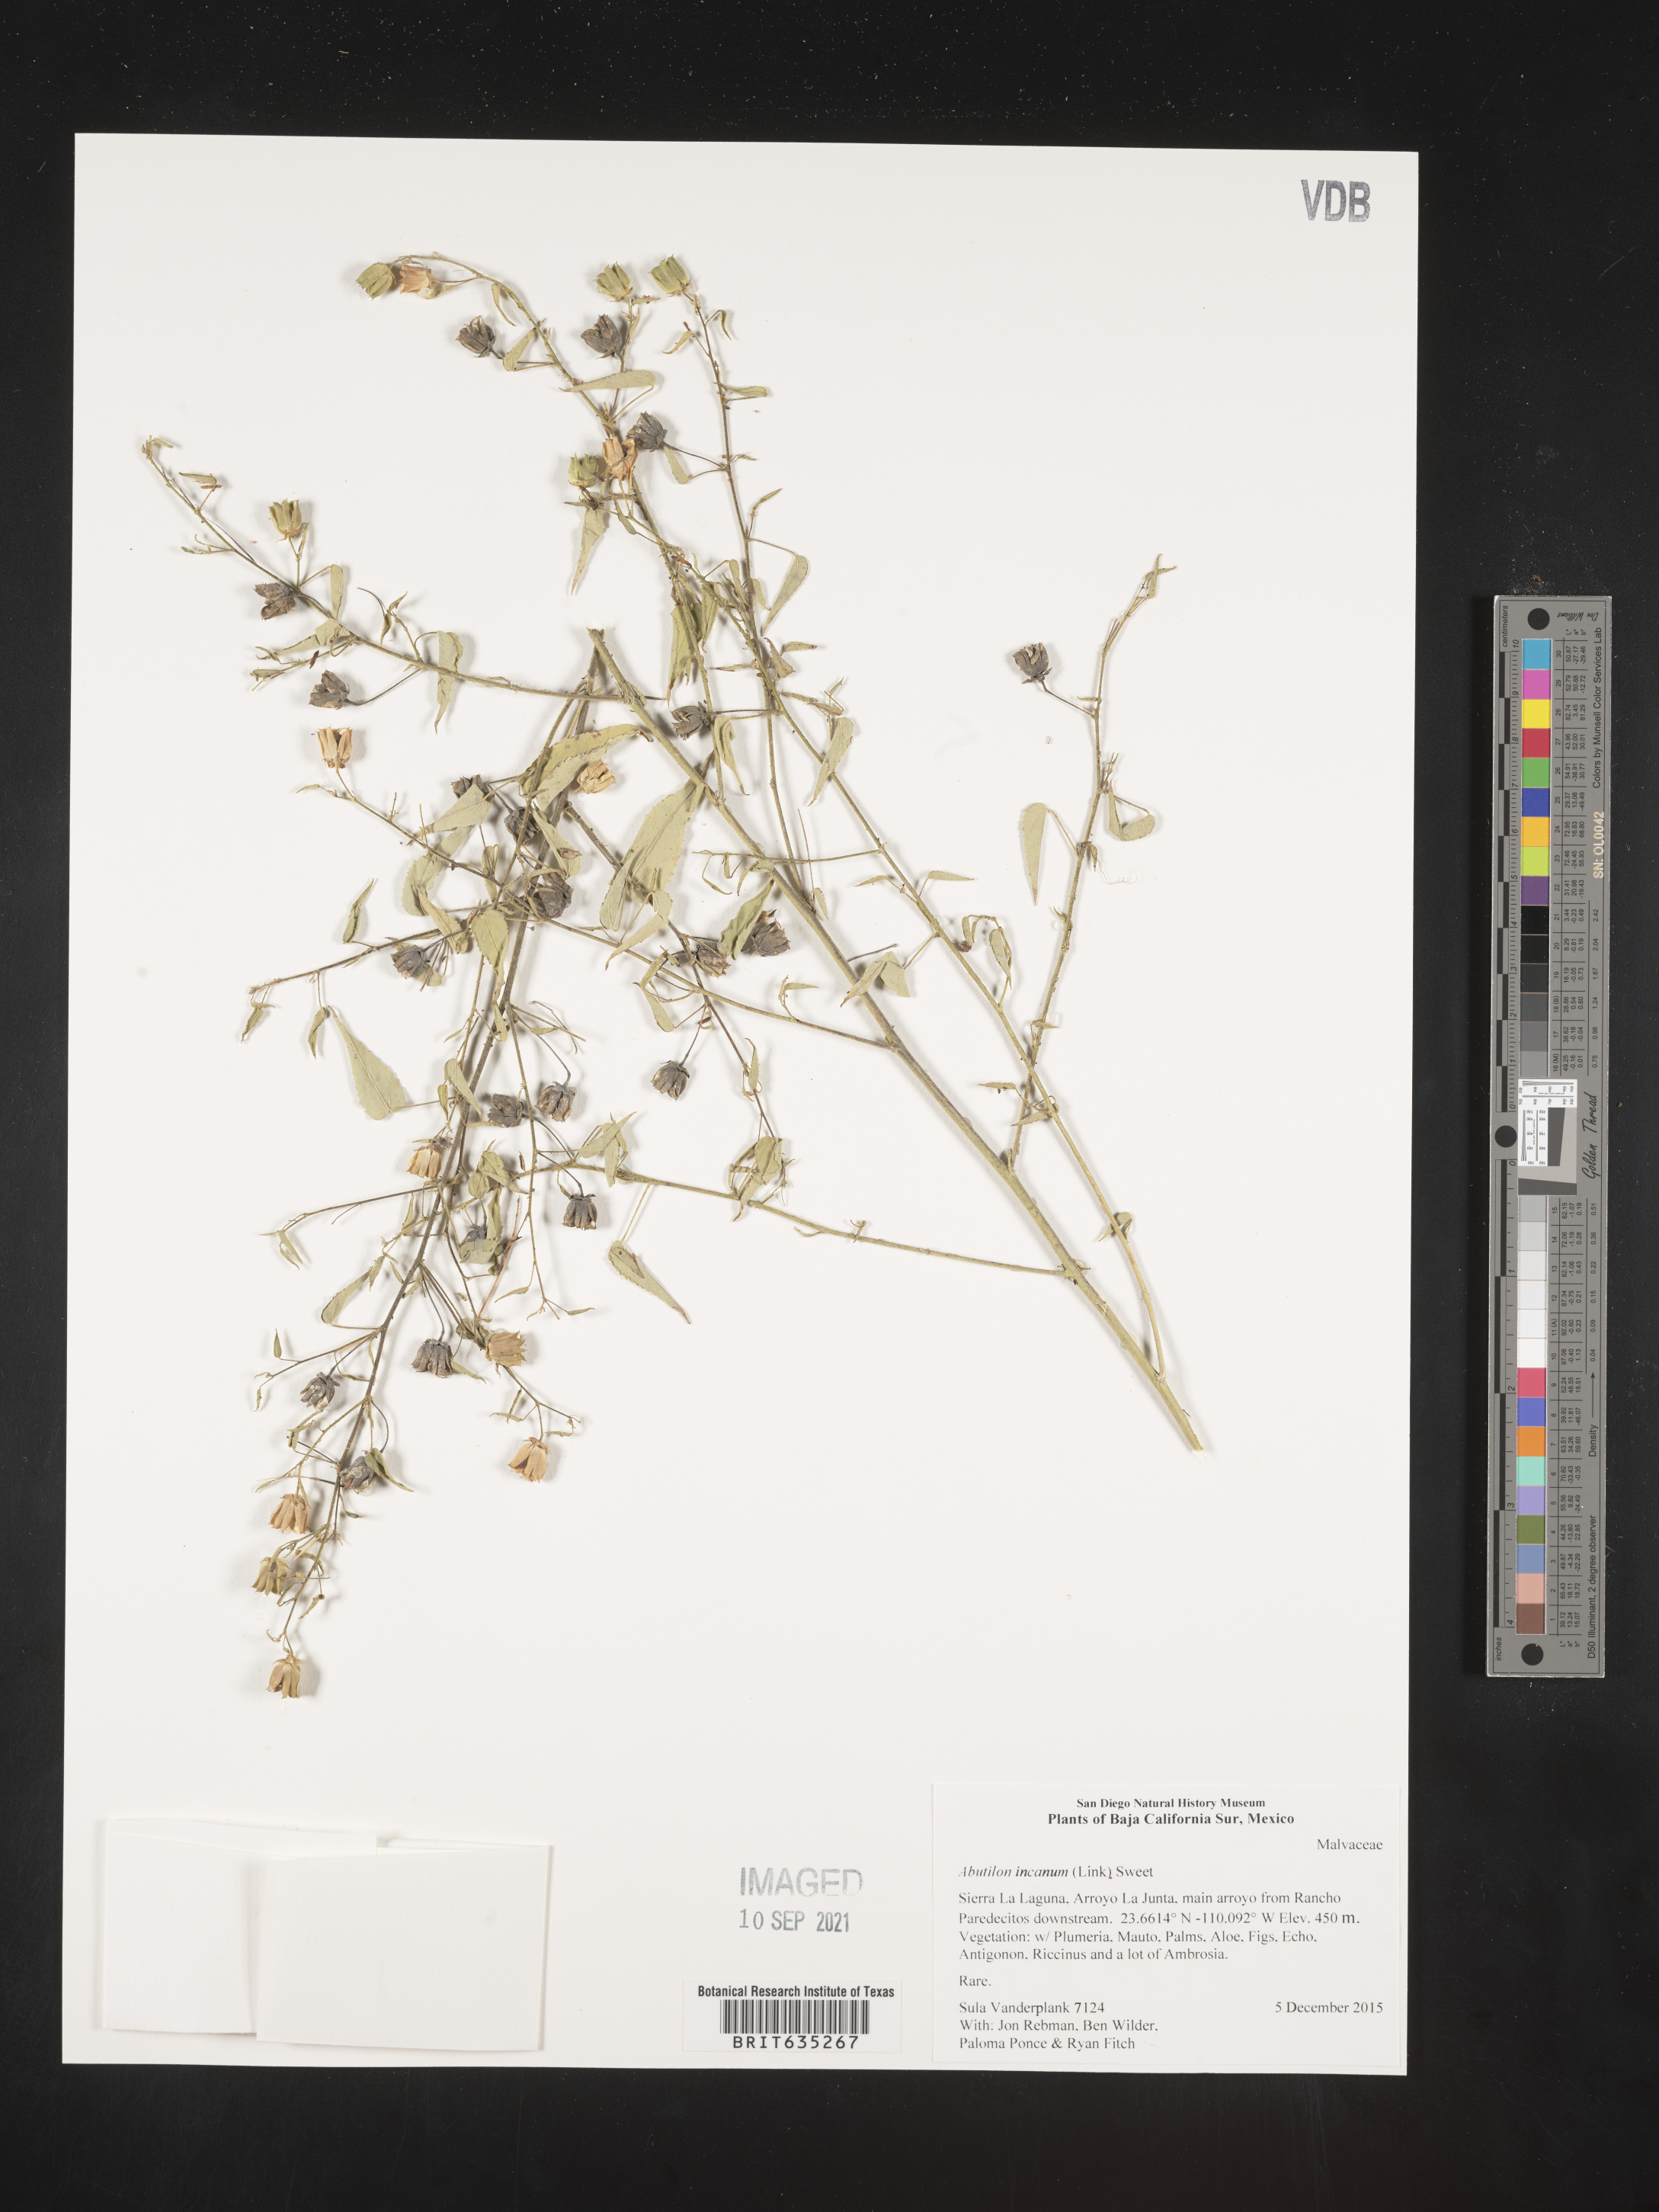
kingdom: Plantae
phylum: Tracheophyta
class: Magnoliopsida
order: Malvales
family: Malvaceae
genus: Abutilon
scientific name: Abutilon
